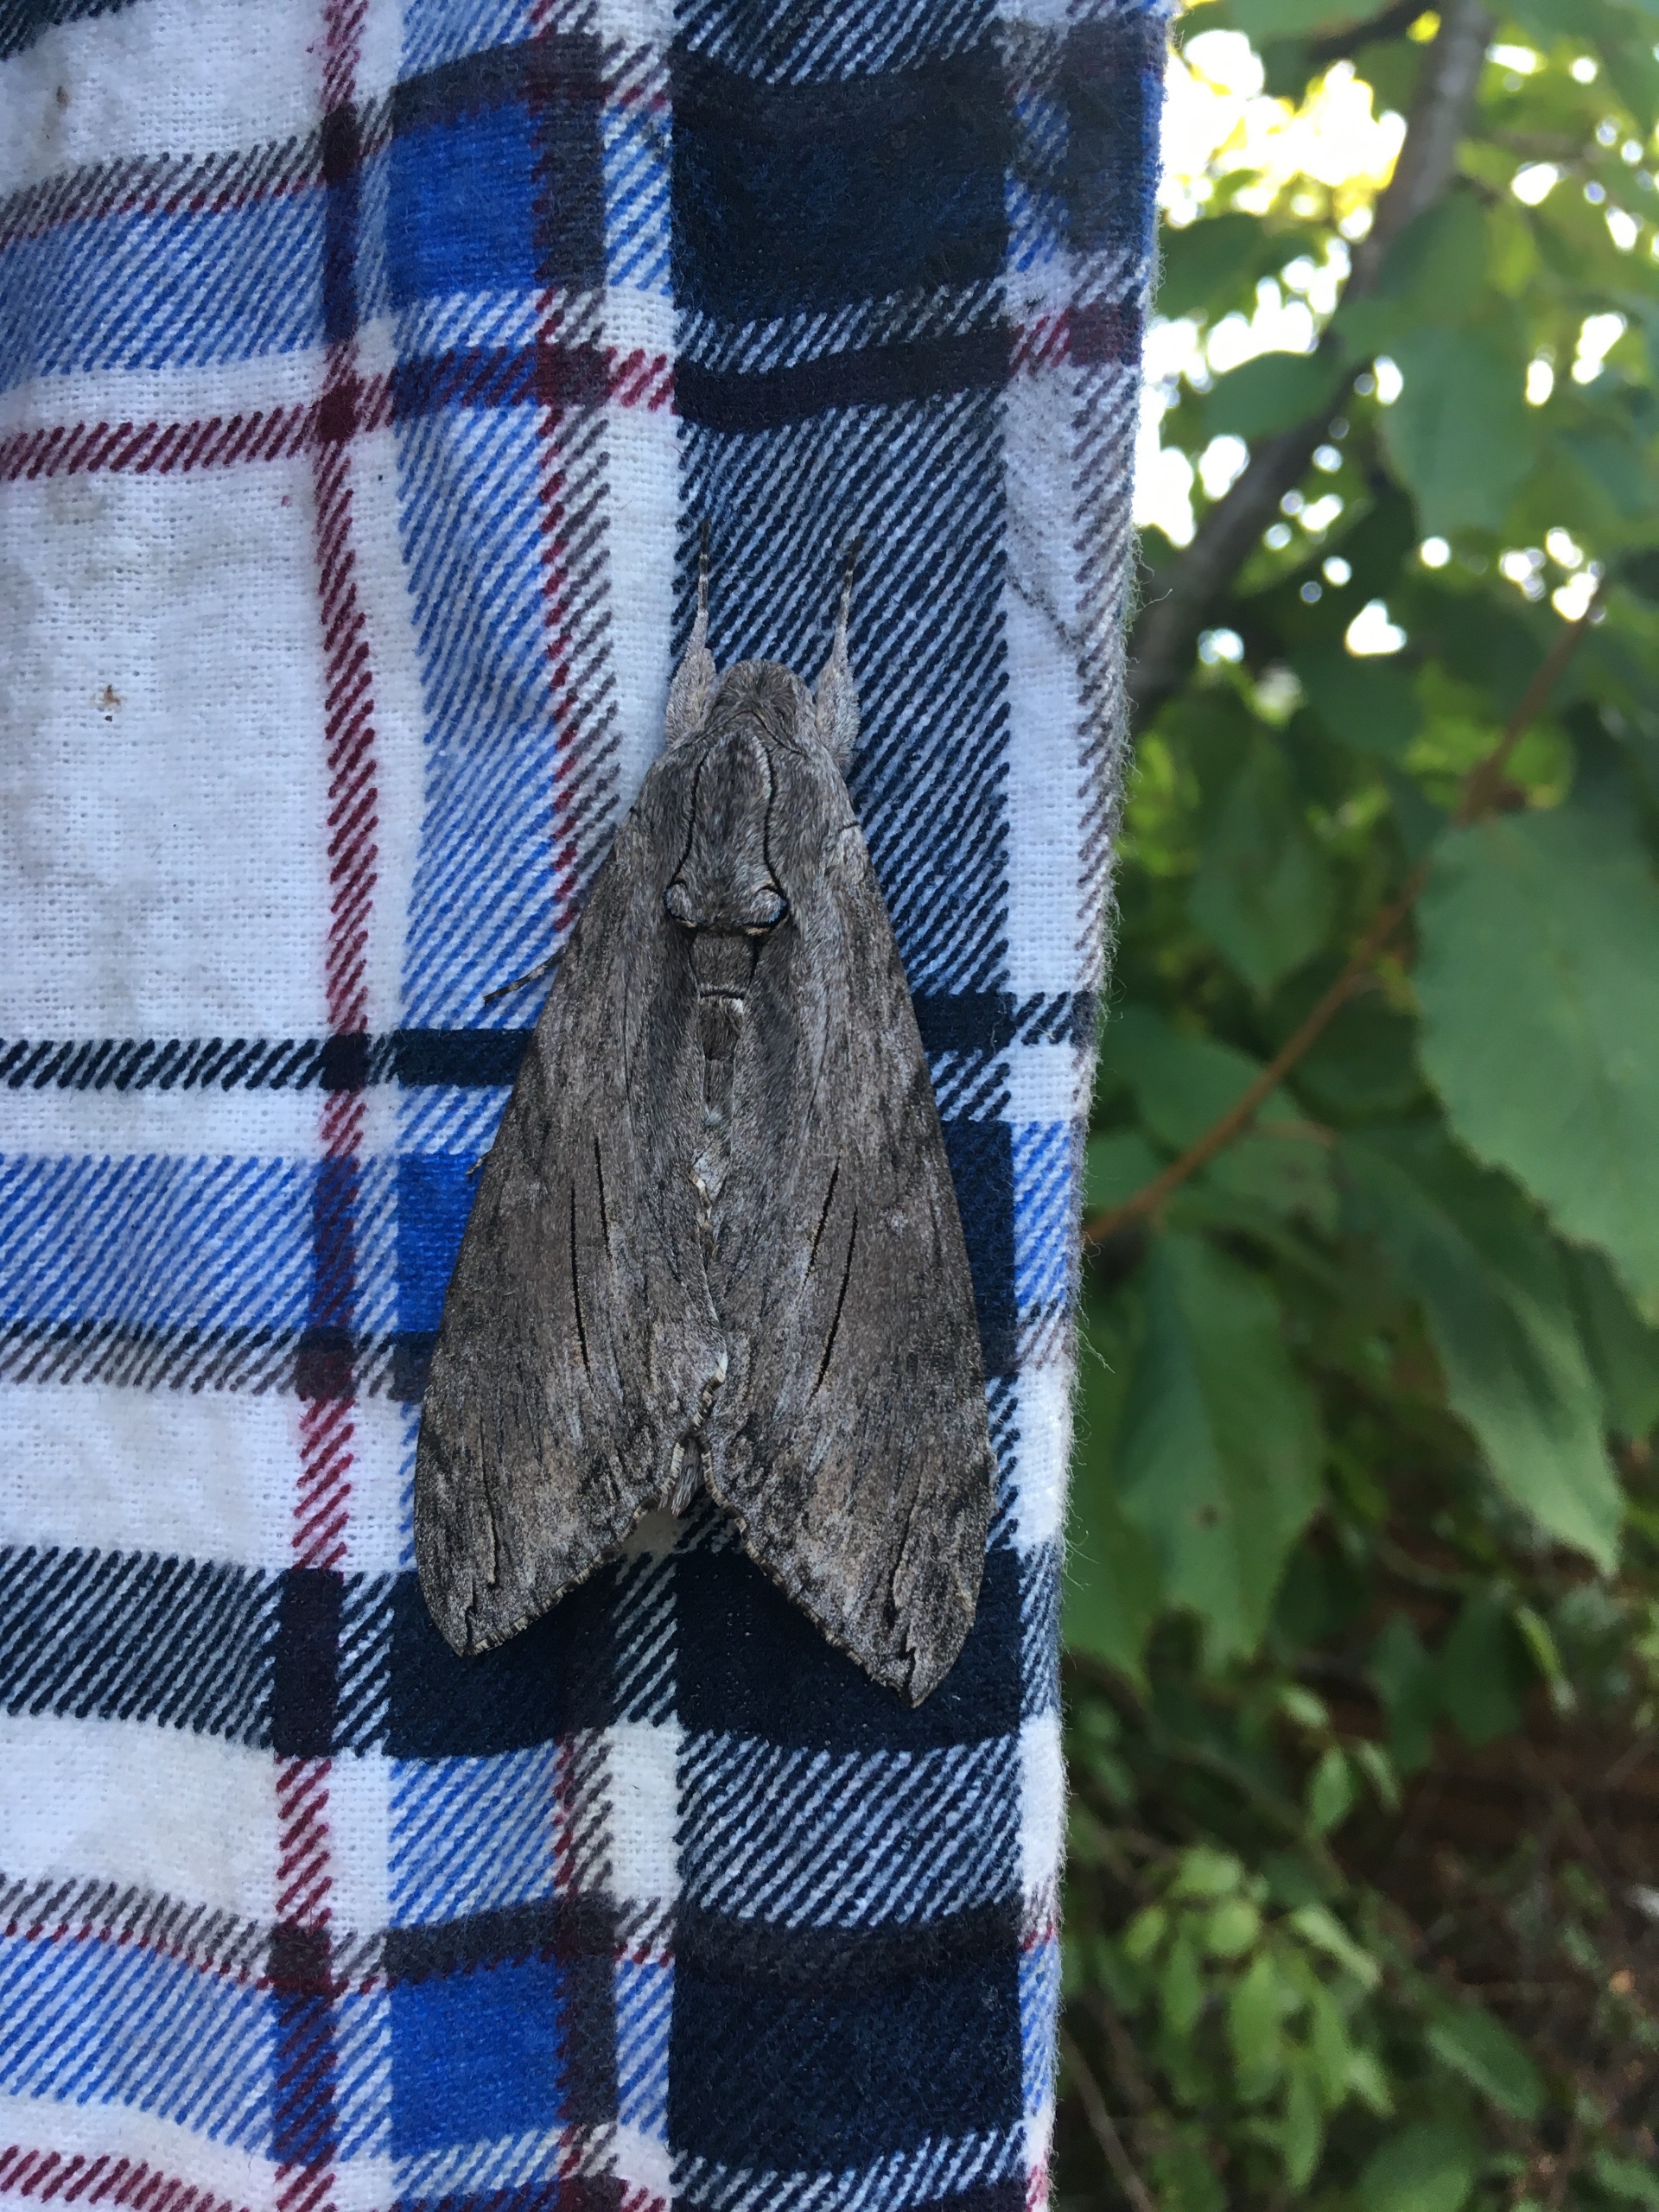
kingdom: Animalia
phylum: Arthropoda
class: Insecta
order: Lepidoptera
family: Sphingidae
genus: Sphinx
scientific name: Sphinx pinastri
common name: Fyrresværmer
